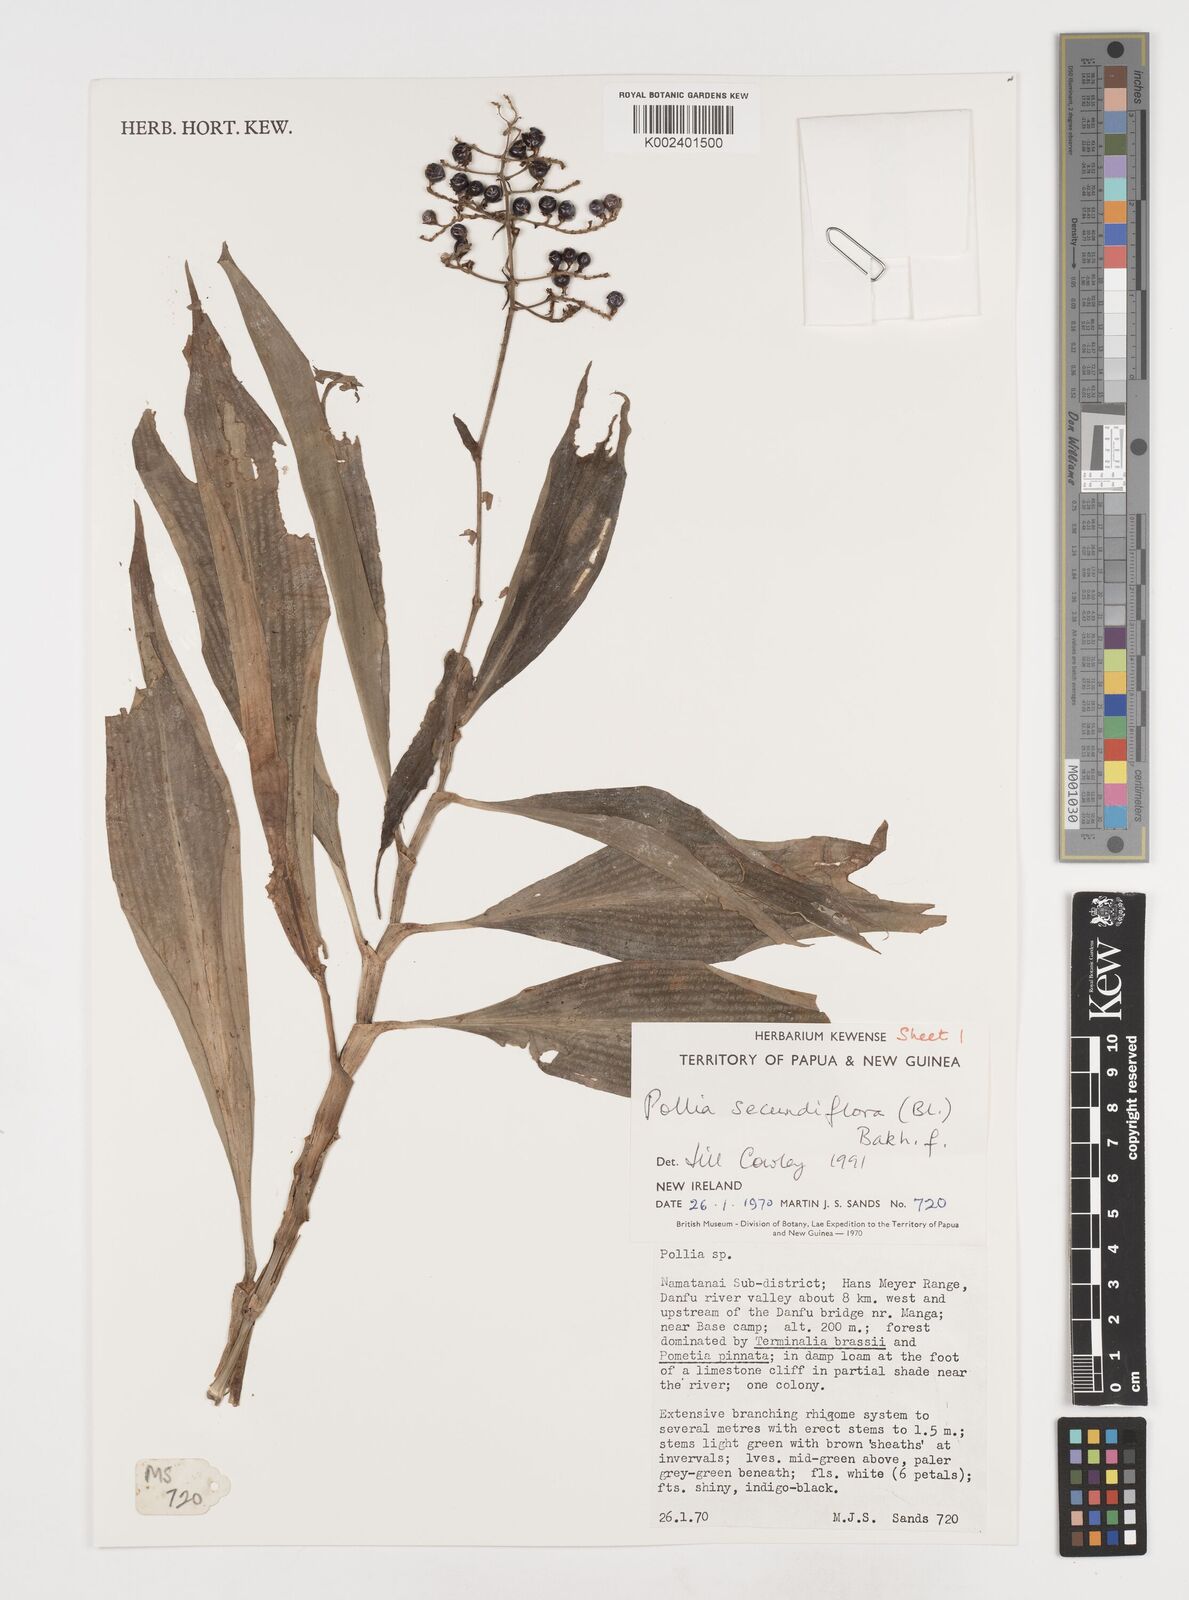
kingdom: Plantae
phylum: Tracheophyta
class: Liliopsida
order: Commelinales
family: Commelinaceae
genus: Pollia
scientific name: Pollia secundiflora
